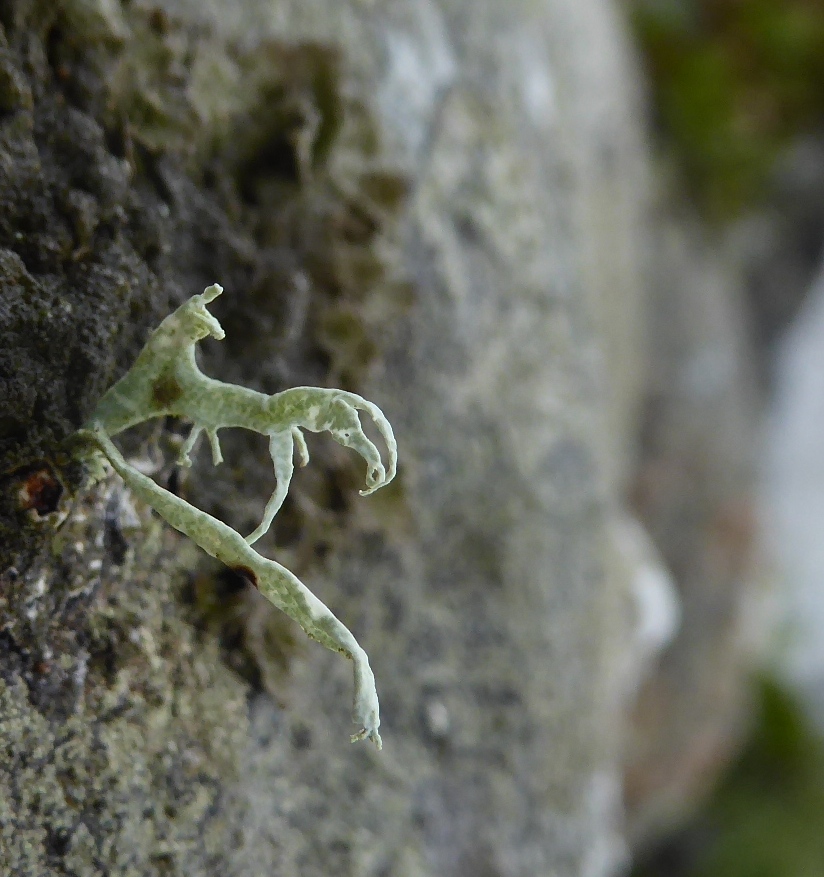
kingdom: Fungi
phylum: Ascomycota
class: Lecanoromycetes
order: Lecanorales
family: Ramalinaceae
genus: Ramalina
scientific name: Ramalina siliquosa
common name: klippe-grenlav
